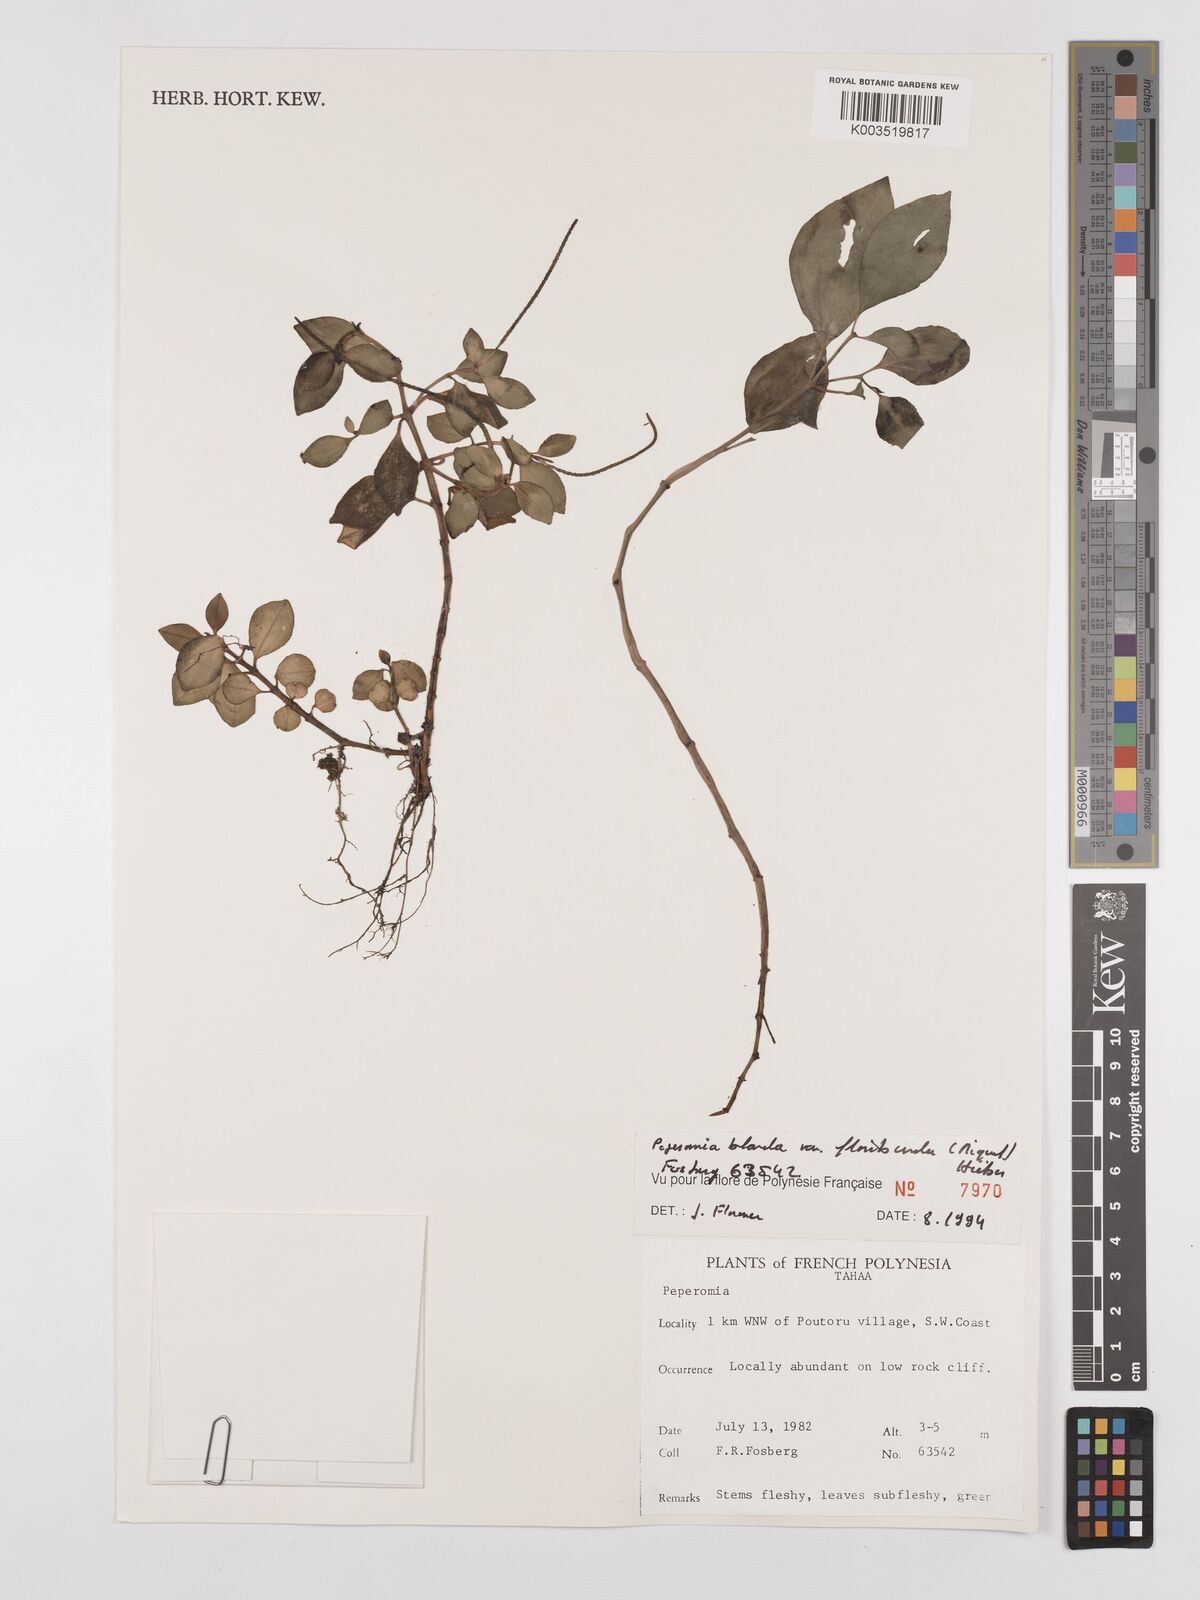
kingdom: Plantae
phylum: Tracheophyta
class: Magnoliopsida
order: Piperales
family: Piperaceae
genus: Peperomia
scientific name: Peperomia leptostachya
